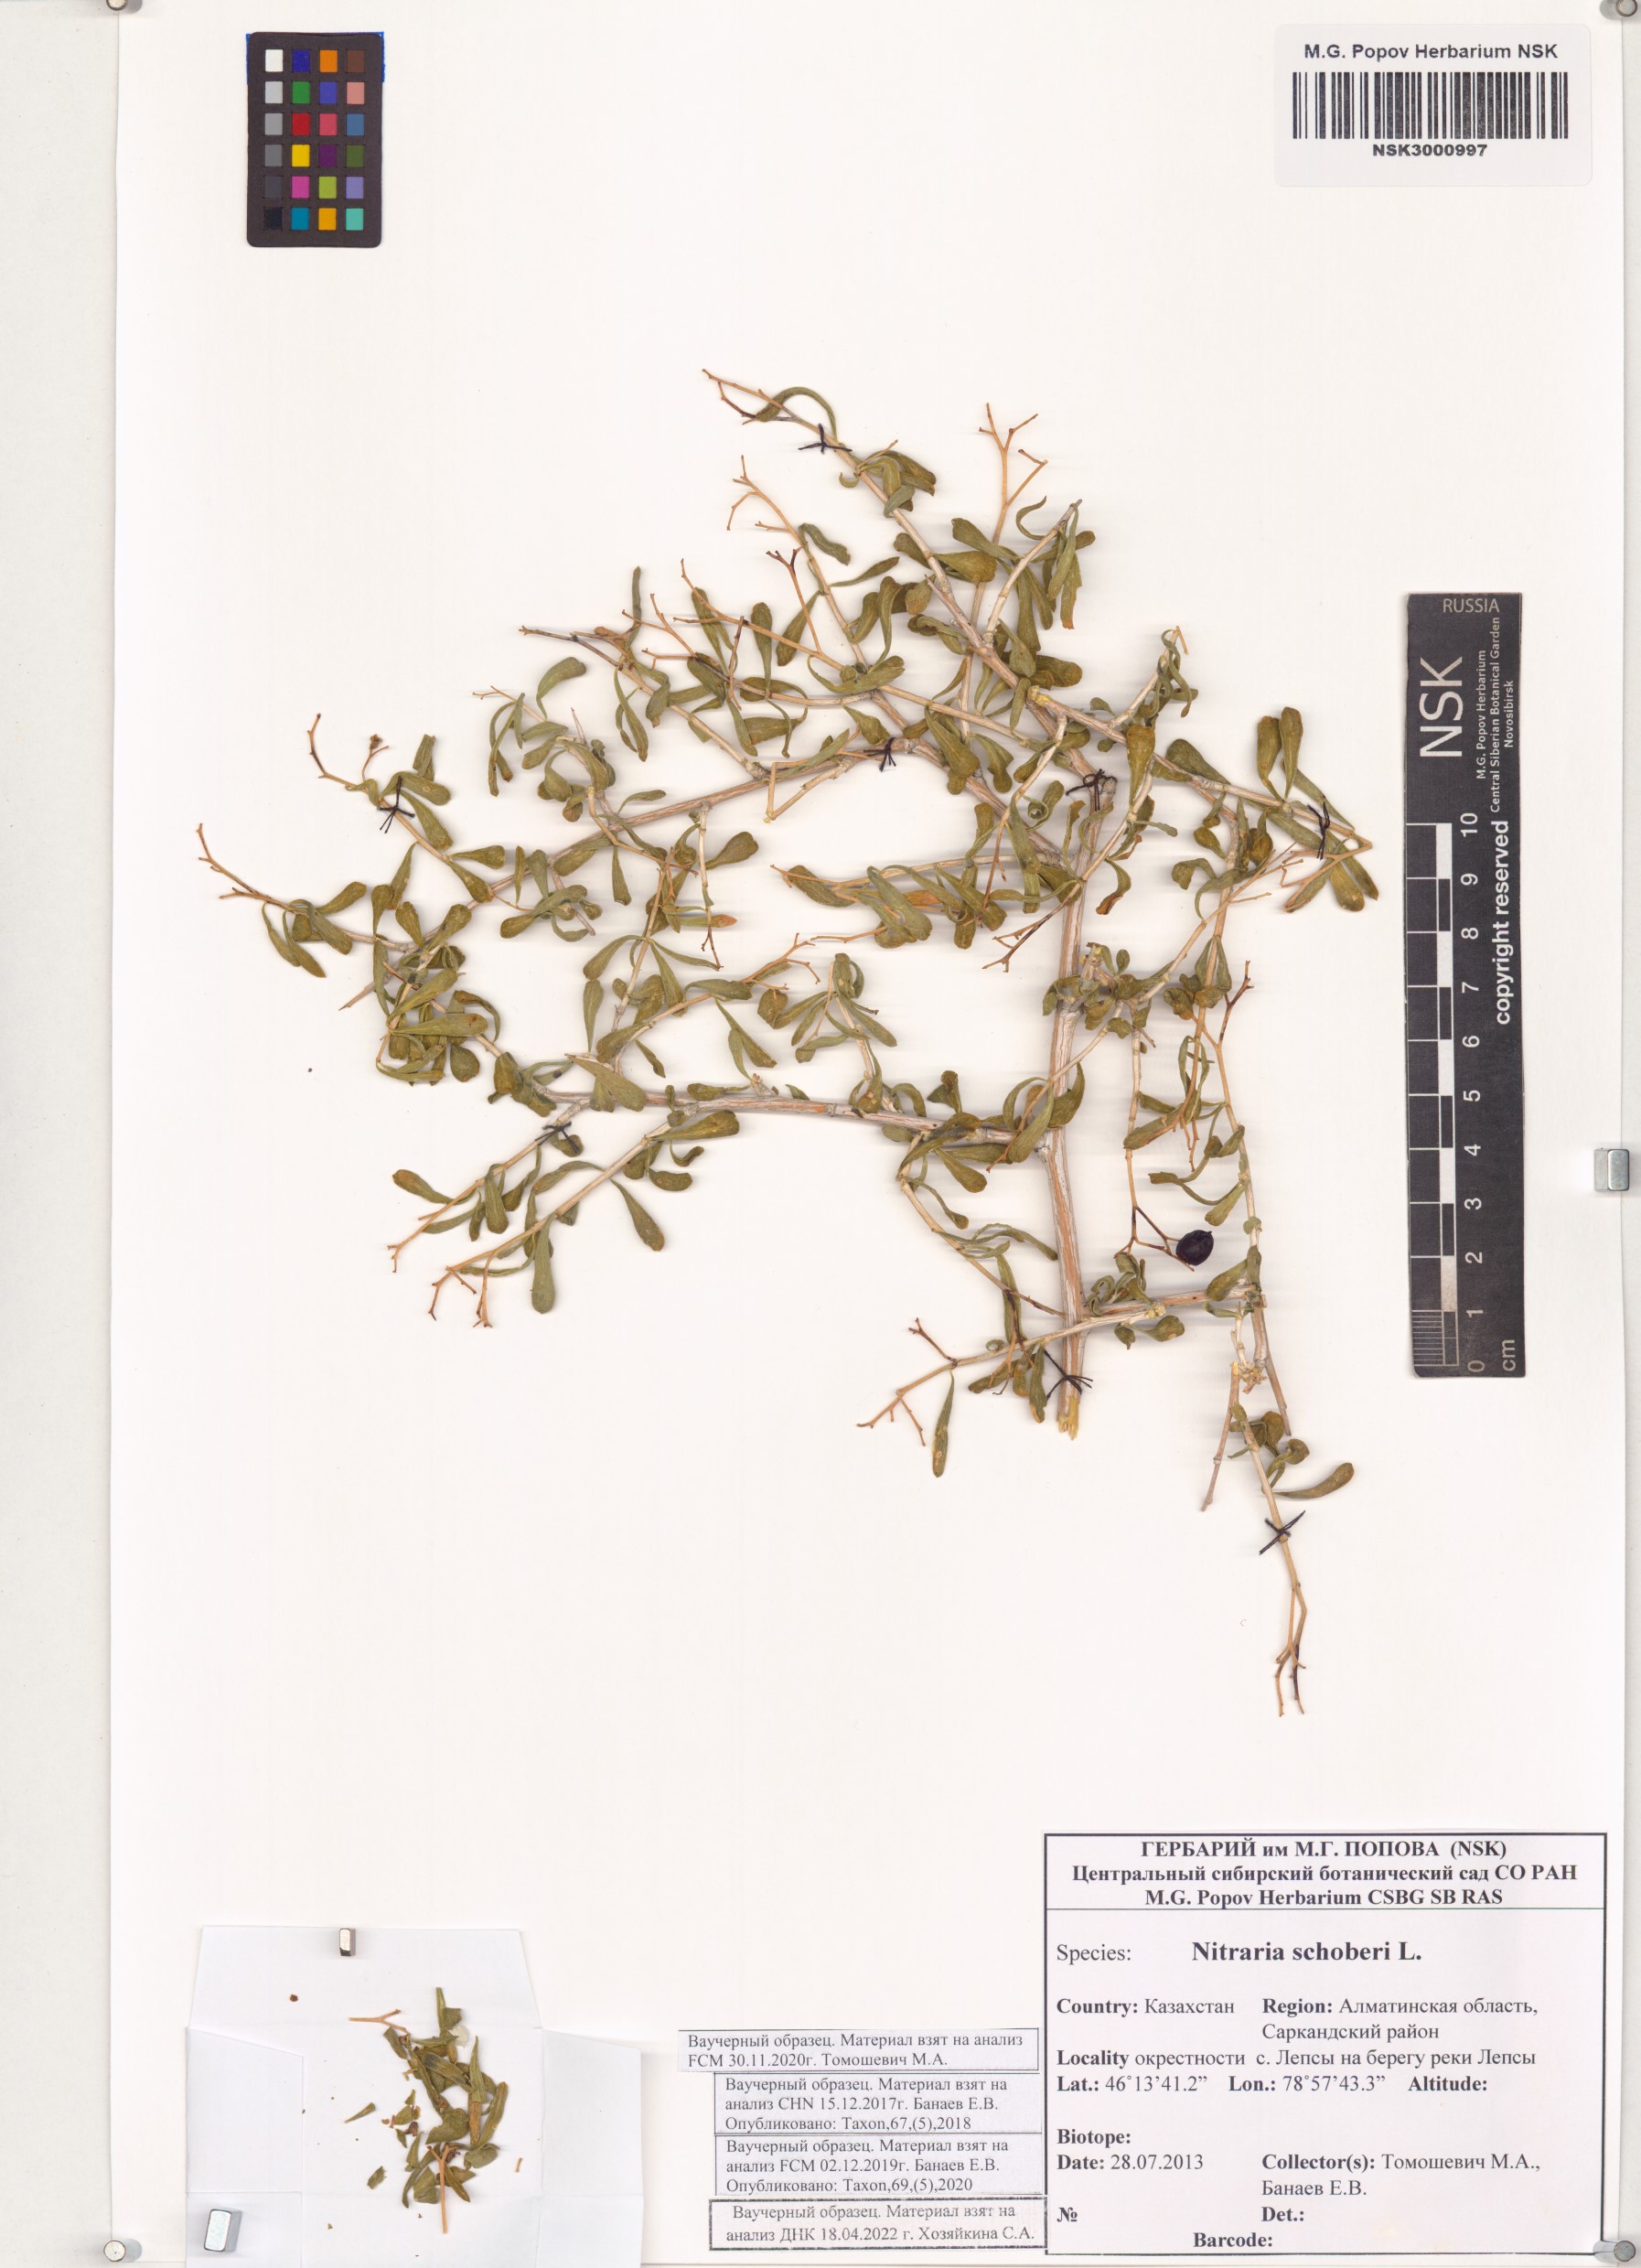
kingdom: Plantae
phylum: Tracheophyta
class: Magnoliopsida
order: Sapindales
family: Nitrariaceae
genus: Nitraria
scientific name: Nitraria schoberi
